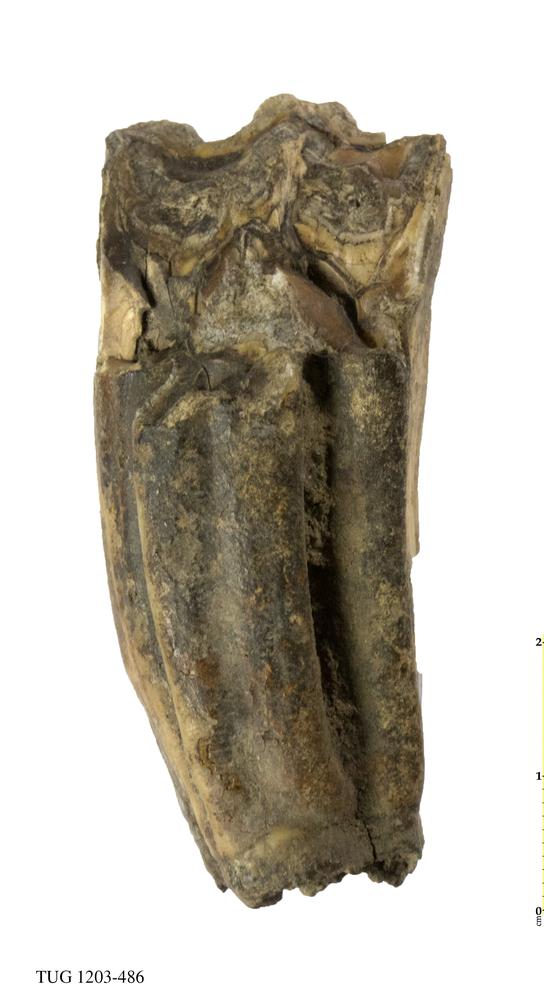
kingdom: Animalia
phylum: Chordata
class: Mammalia
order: Perissodactyla
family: Equidae
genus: Equus
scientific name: Equus caballus
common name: Horse
